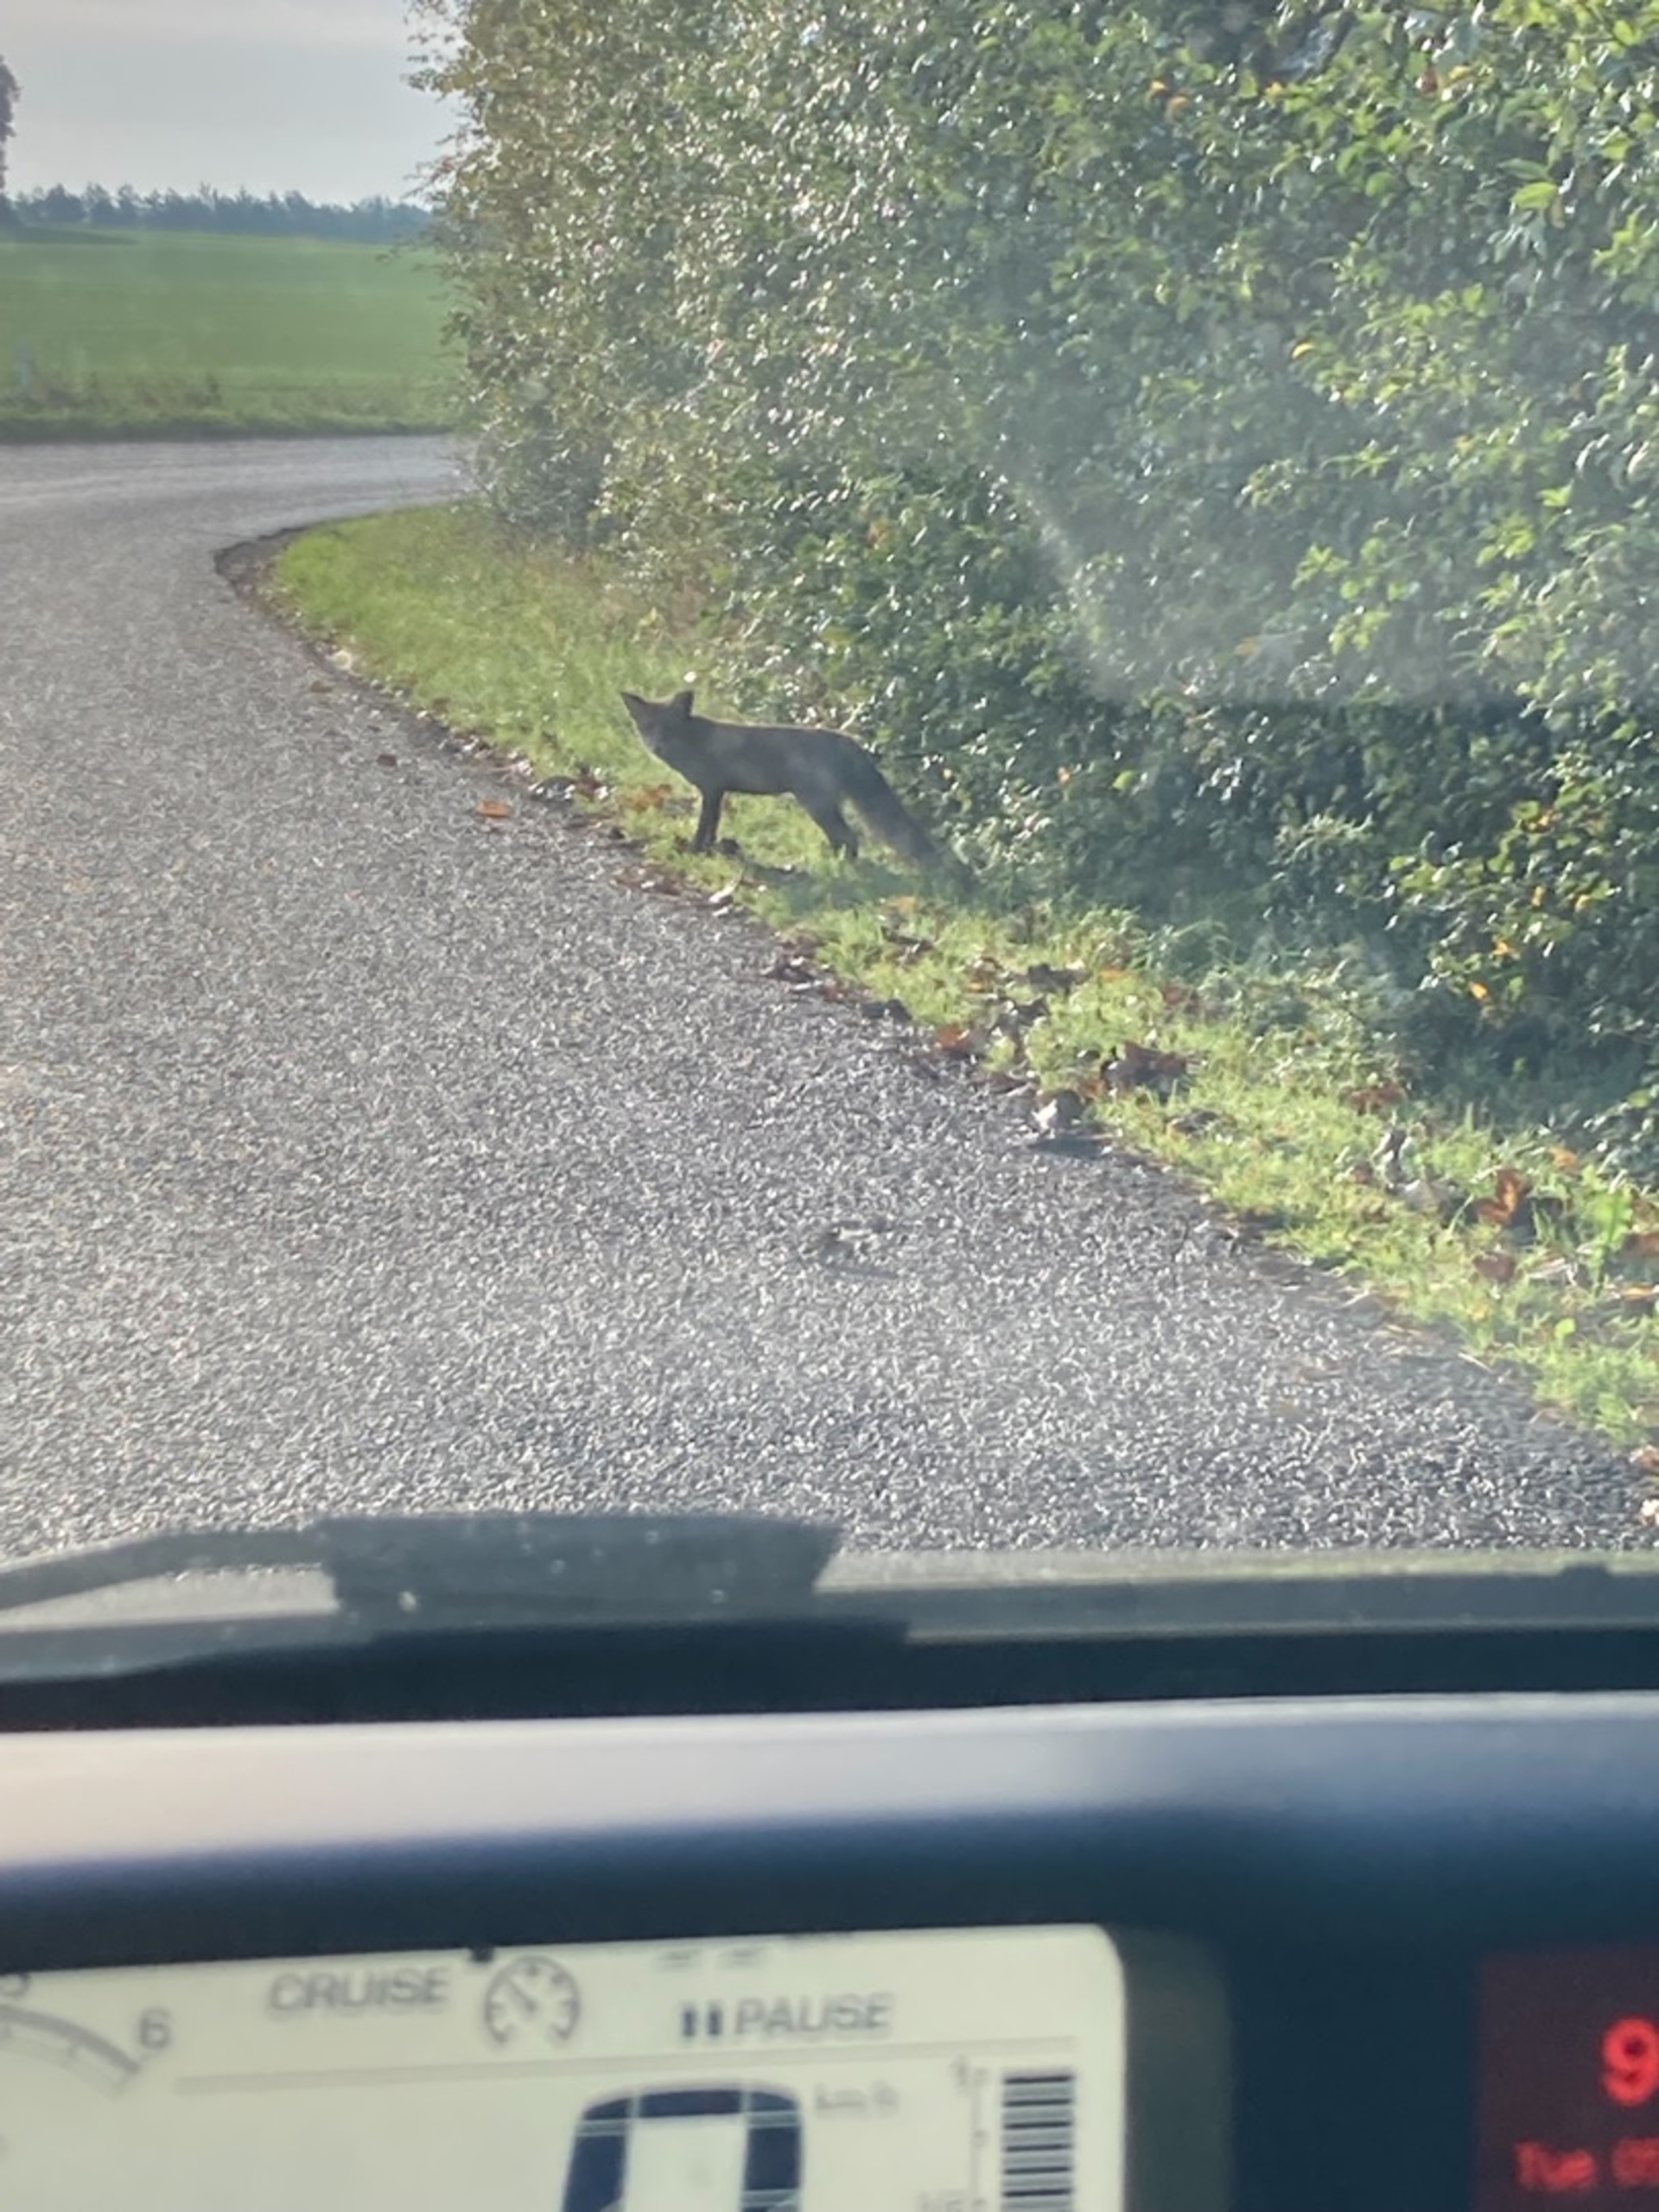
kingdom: Animalia
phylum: Chordata
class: Mammalia
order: Carnivora
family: Canidae
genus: Vulpes
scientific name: Vulpes vulpes
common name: Ræv
